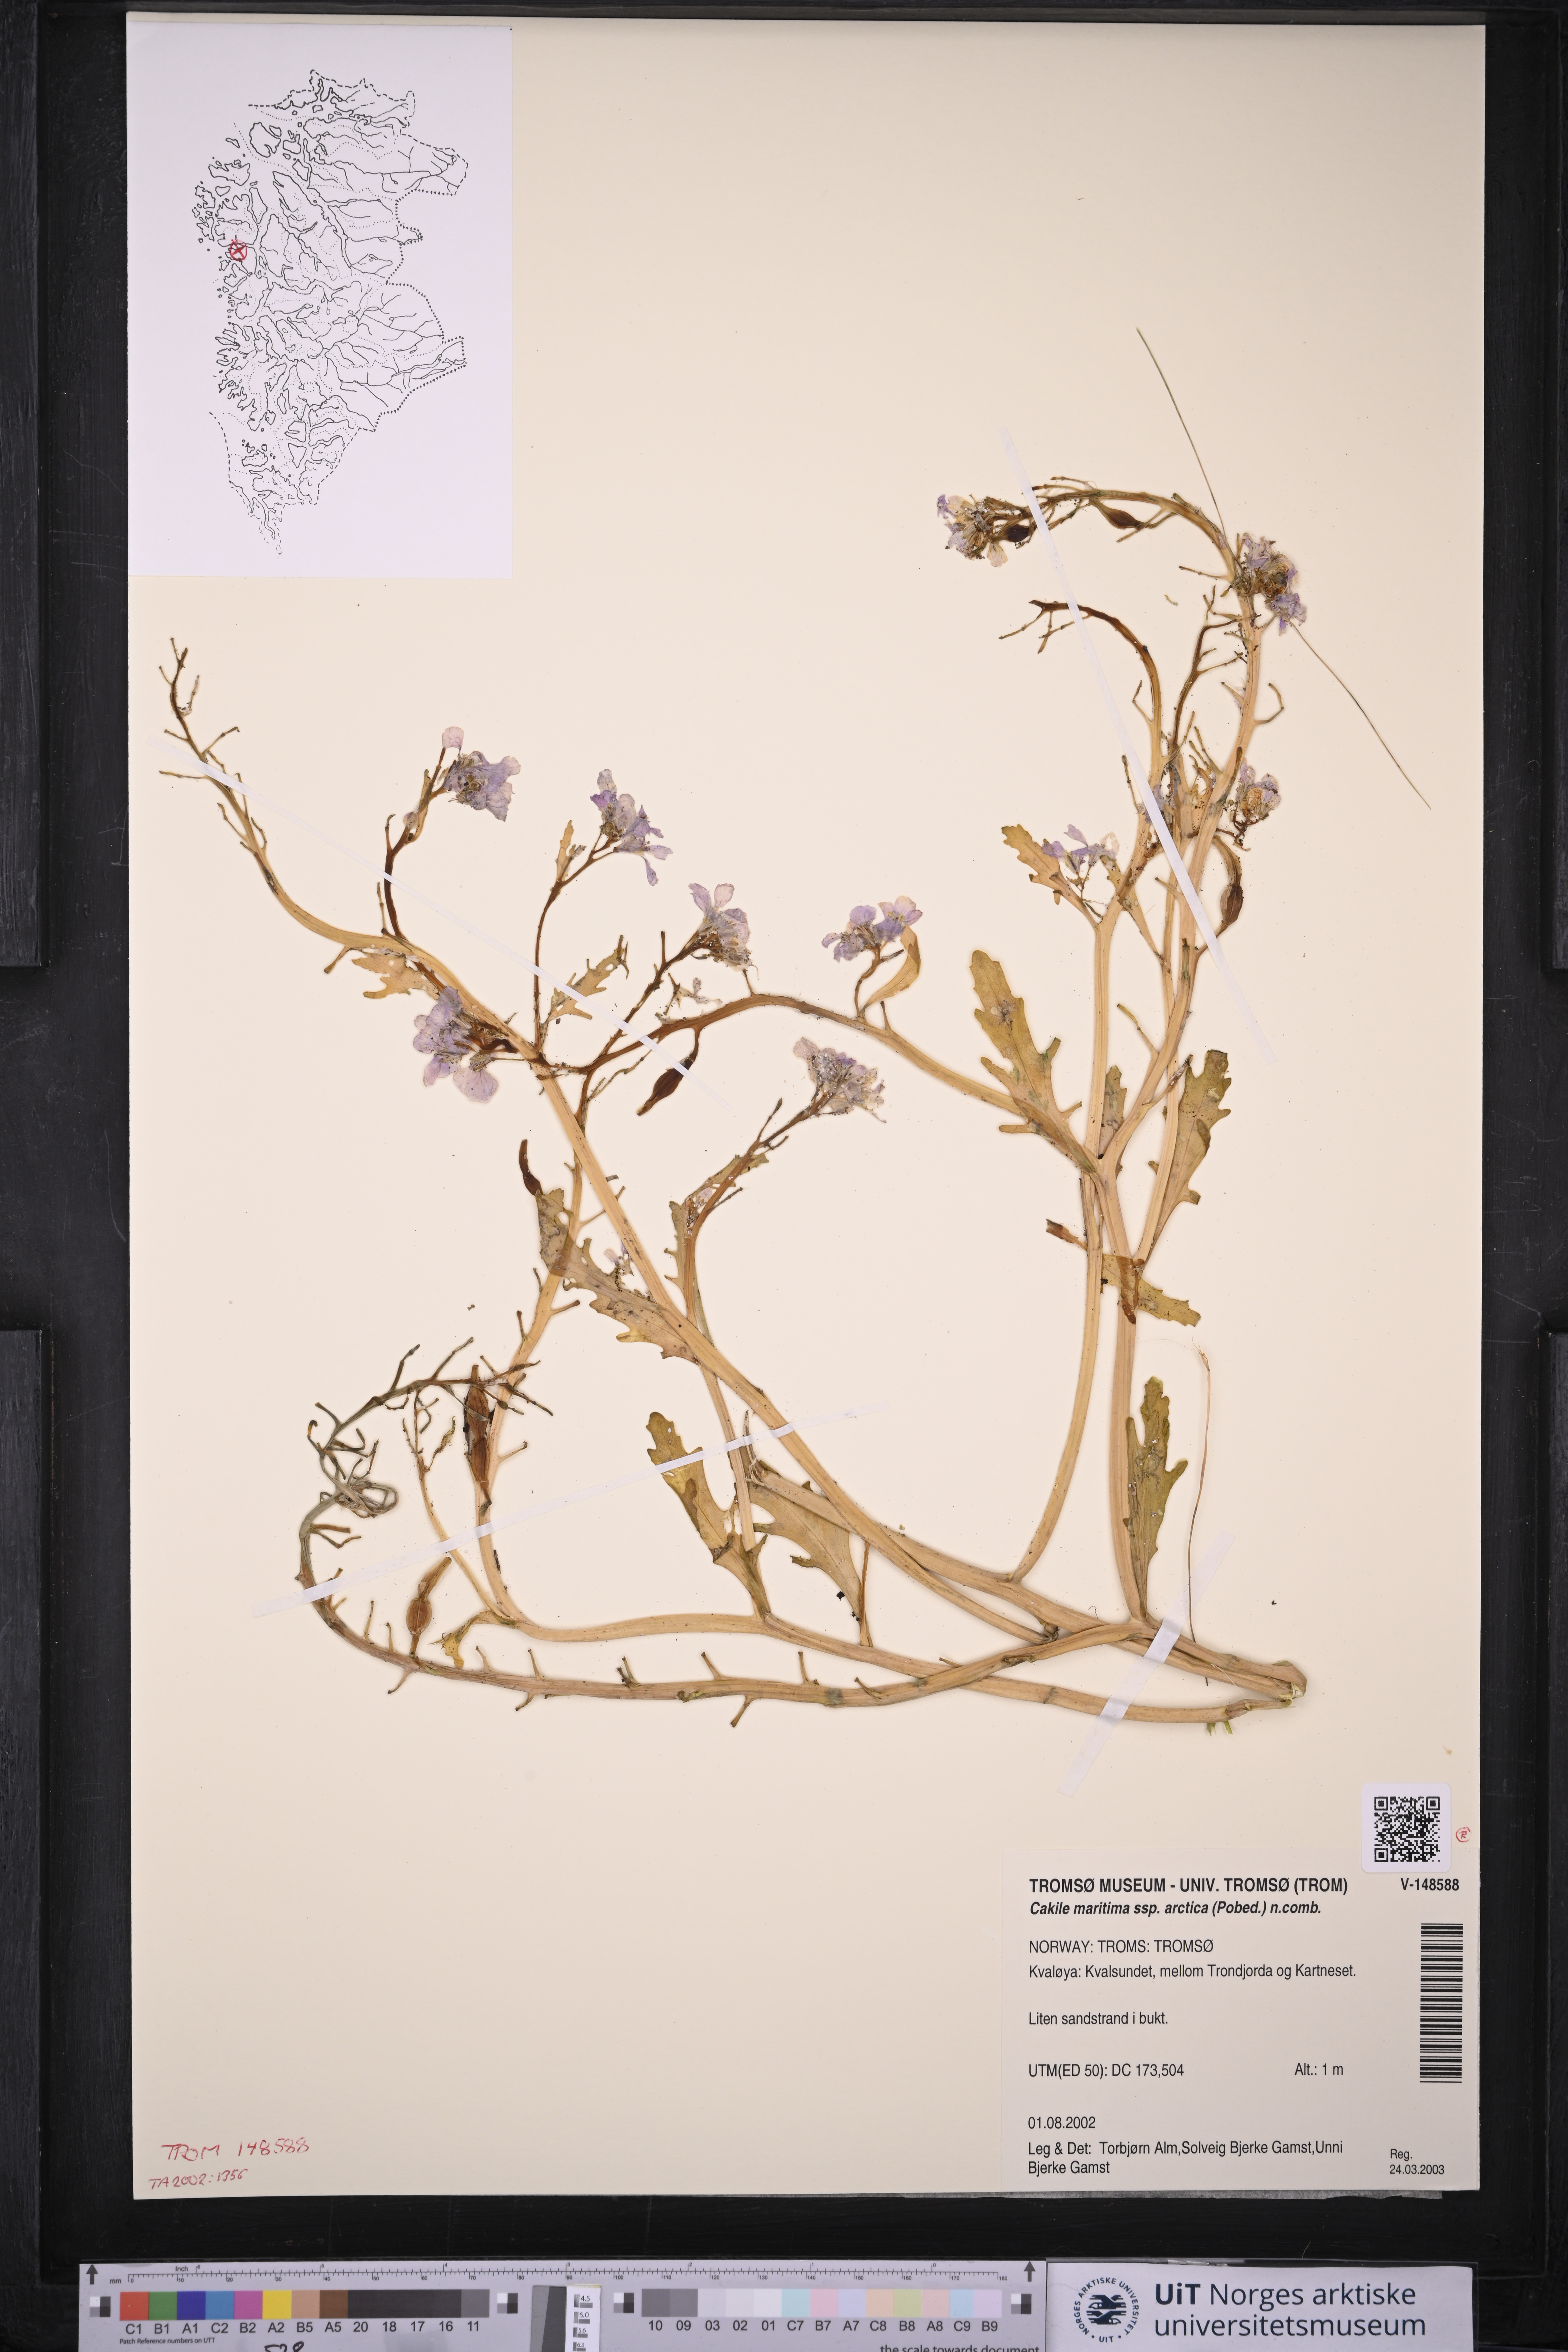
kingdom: Plantae
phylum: Tracheophyta
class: Magnoliopsida
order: Brassicales
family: Brassicaceae
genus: Cakile
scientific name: Cakile arctica
